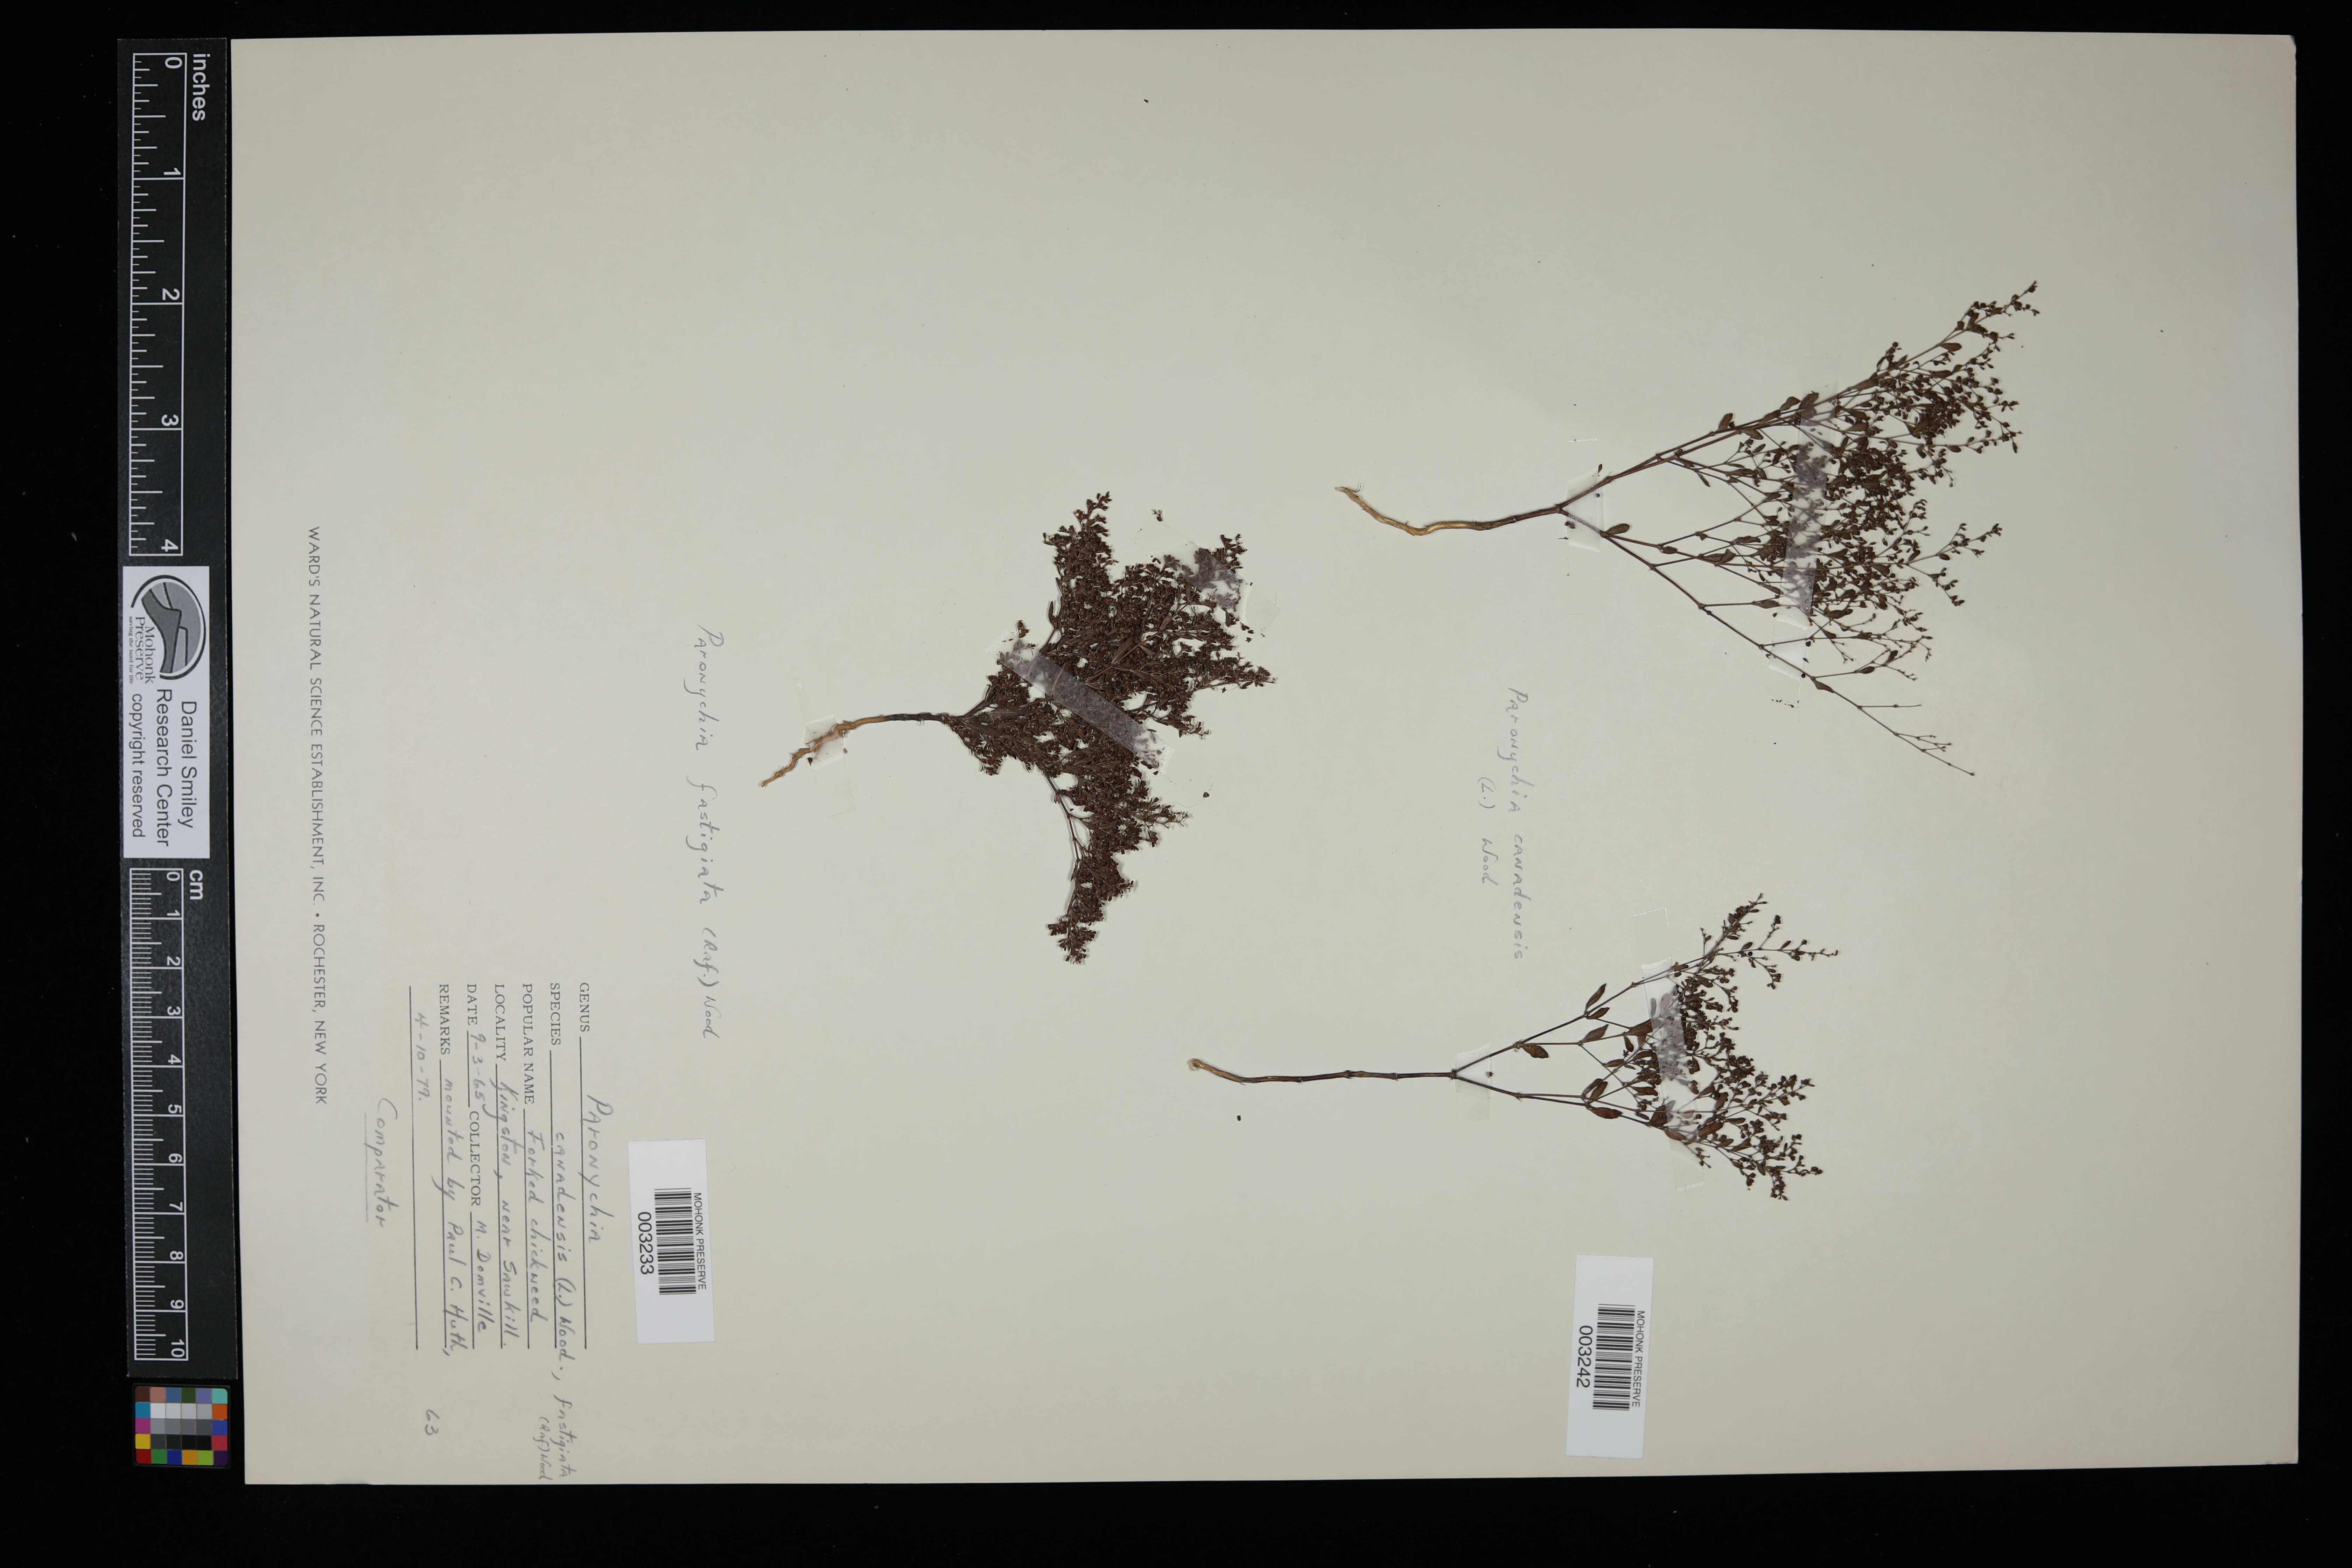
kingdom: Plantae
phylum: Tracheophyta
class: Magnoliopsida
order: Caryophyllales
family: Caryophyllaceae
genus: Paronychia
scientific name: Paronychia fastigiata
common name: Branching forked whitlow-wort
